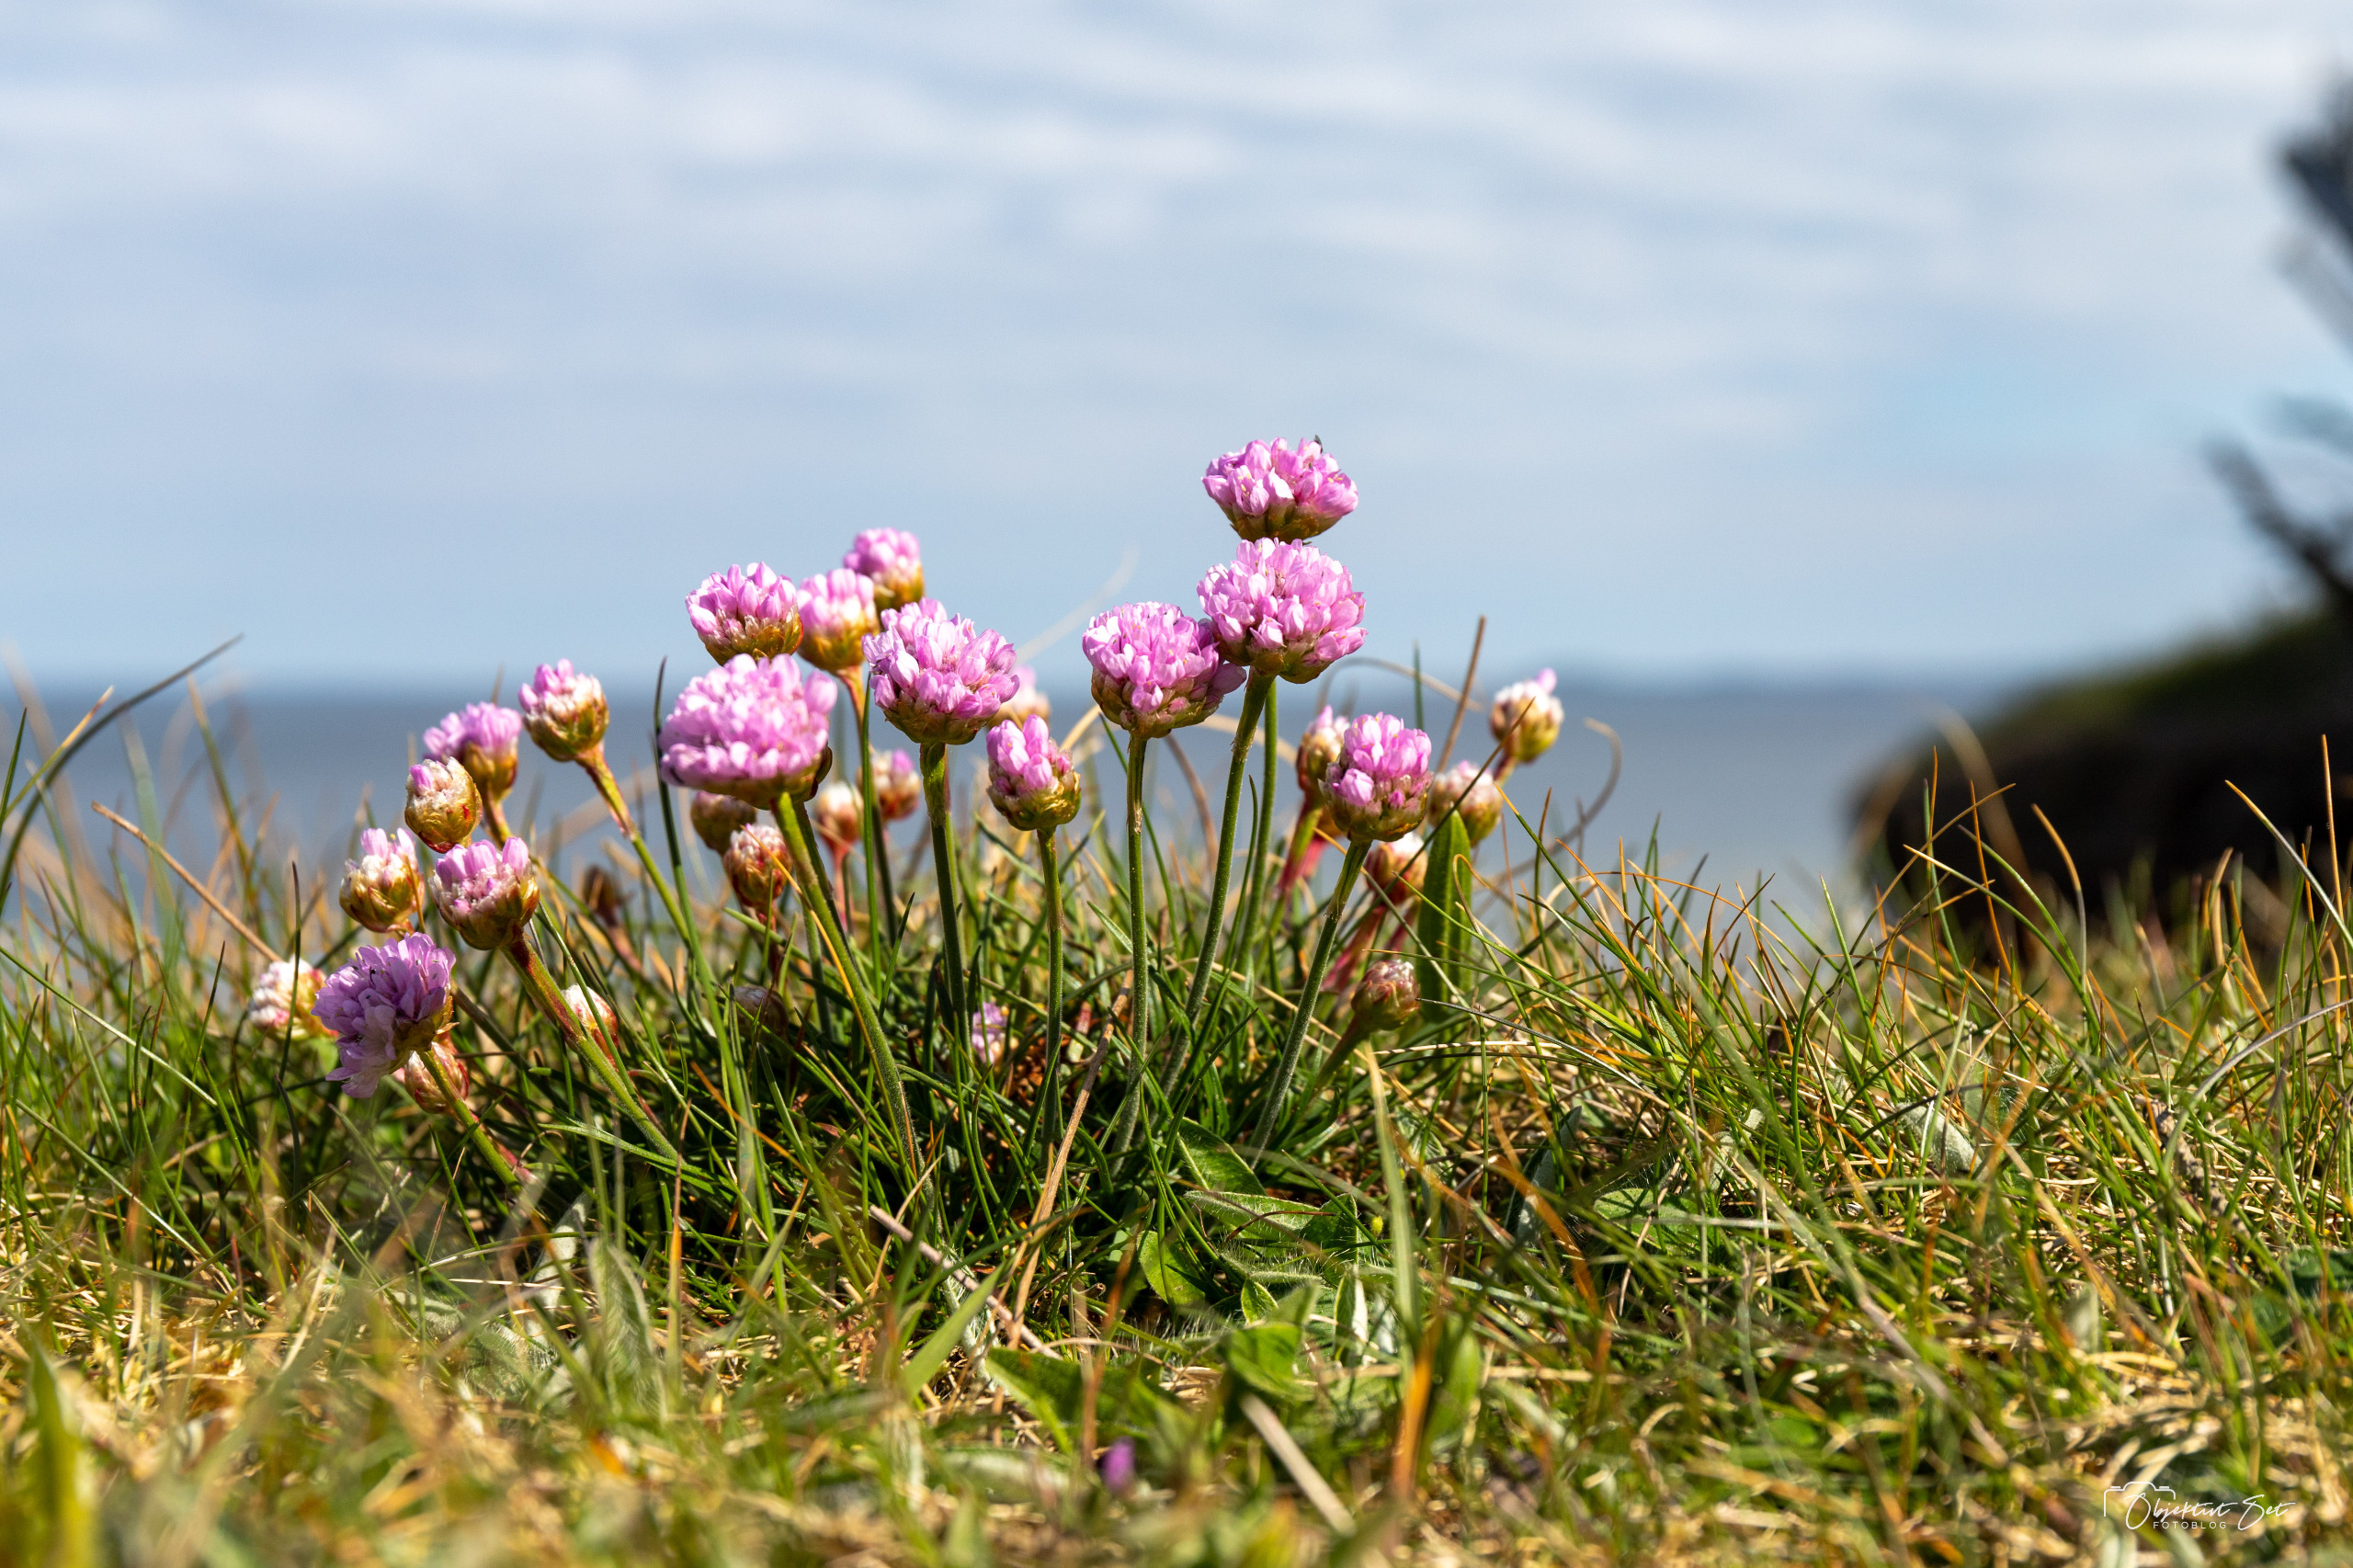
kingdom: Plantae
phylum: Tracheophyta
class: Magnoliopsida
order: Caryophyllales
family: Plumbaginaceae
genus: Armeria
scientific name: Armeria maritima
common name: Engelskgræs
